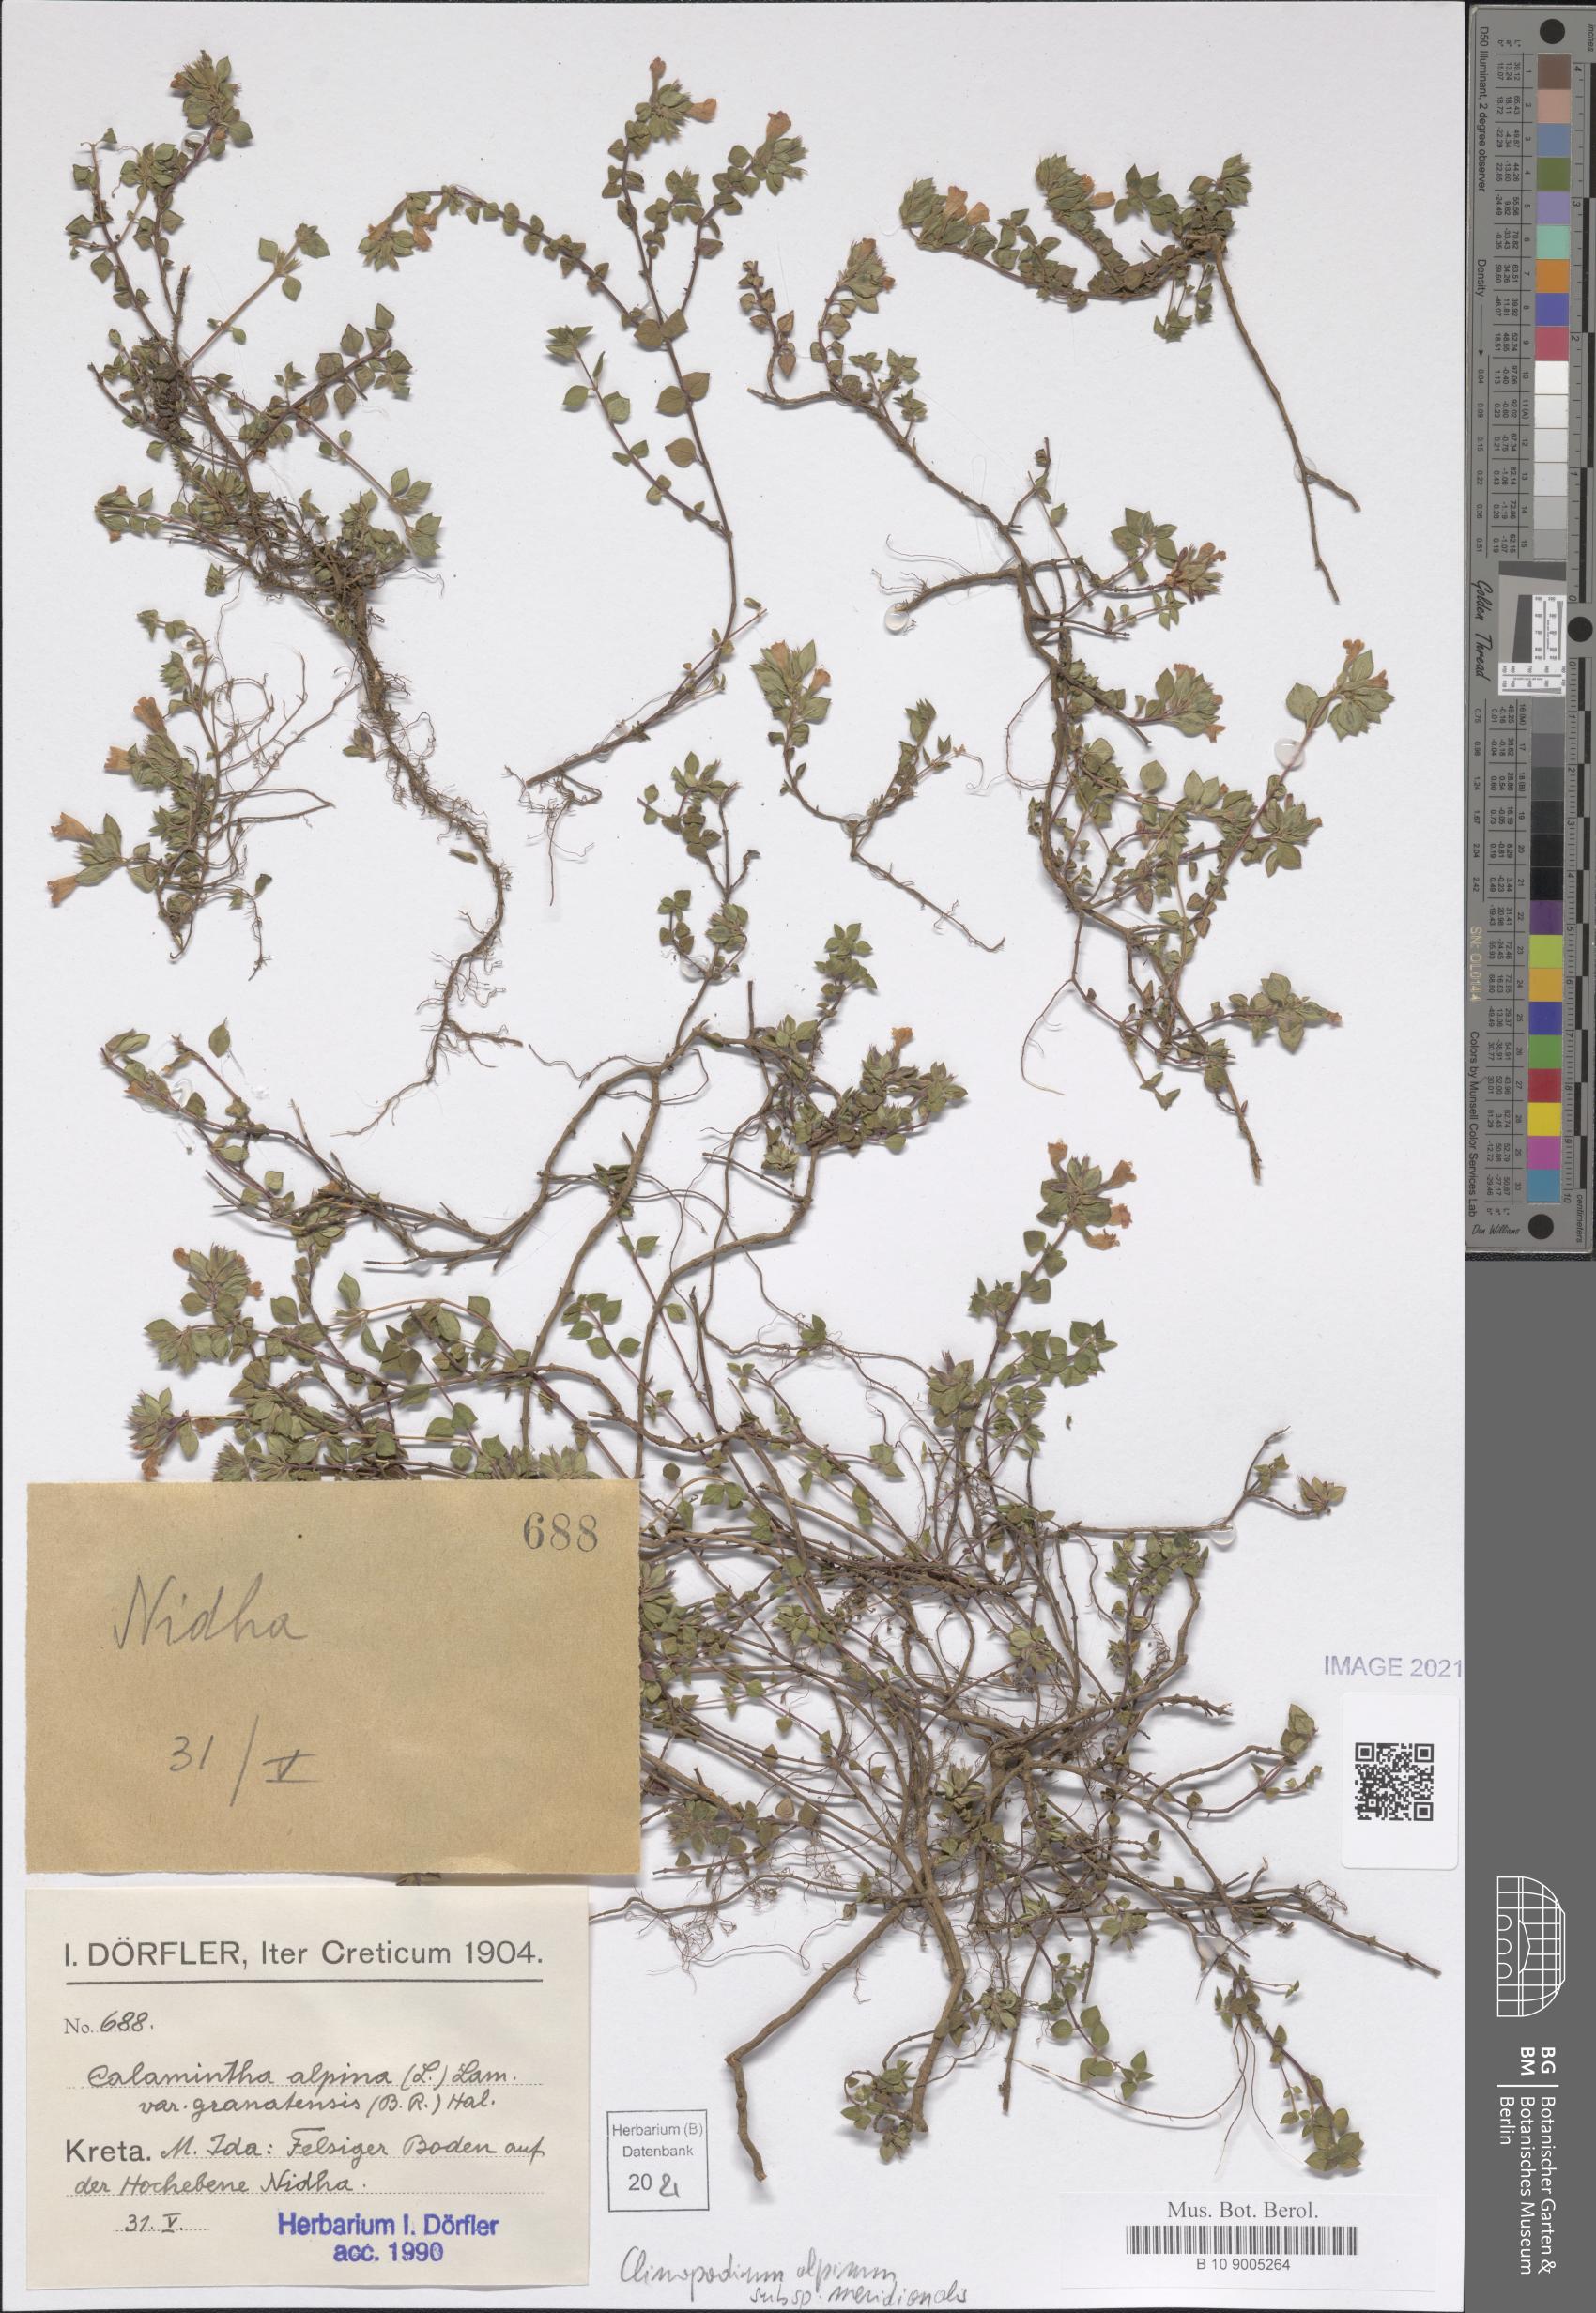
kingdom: Plantae
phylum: Tracheophyta
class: Magnoliopsida
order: Lamiales
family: Lamiaceae
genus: Clinopodium
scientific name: Clinopodium alpinum
